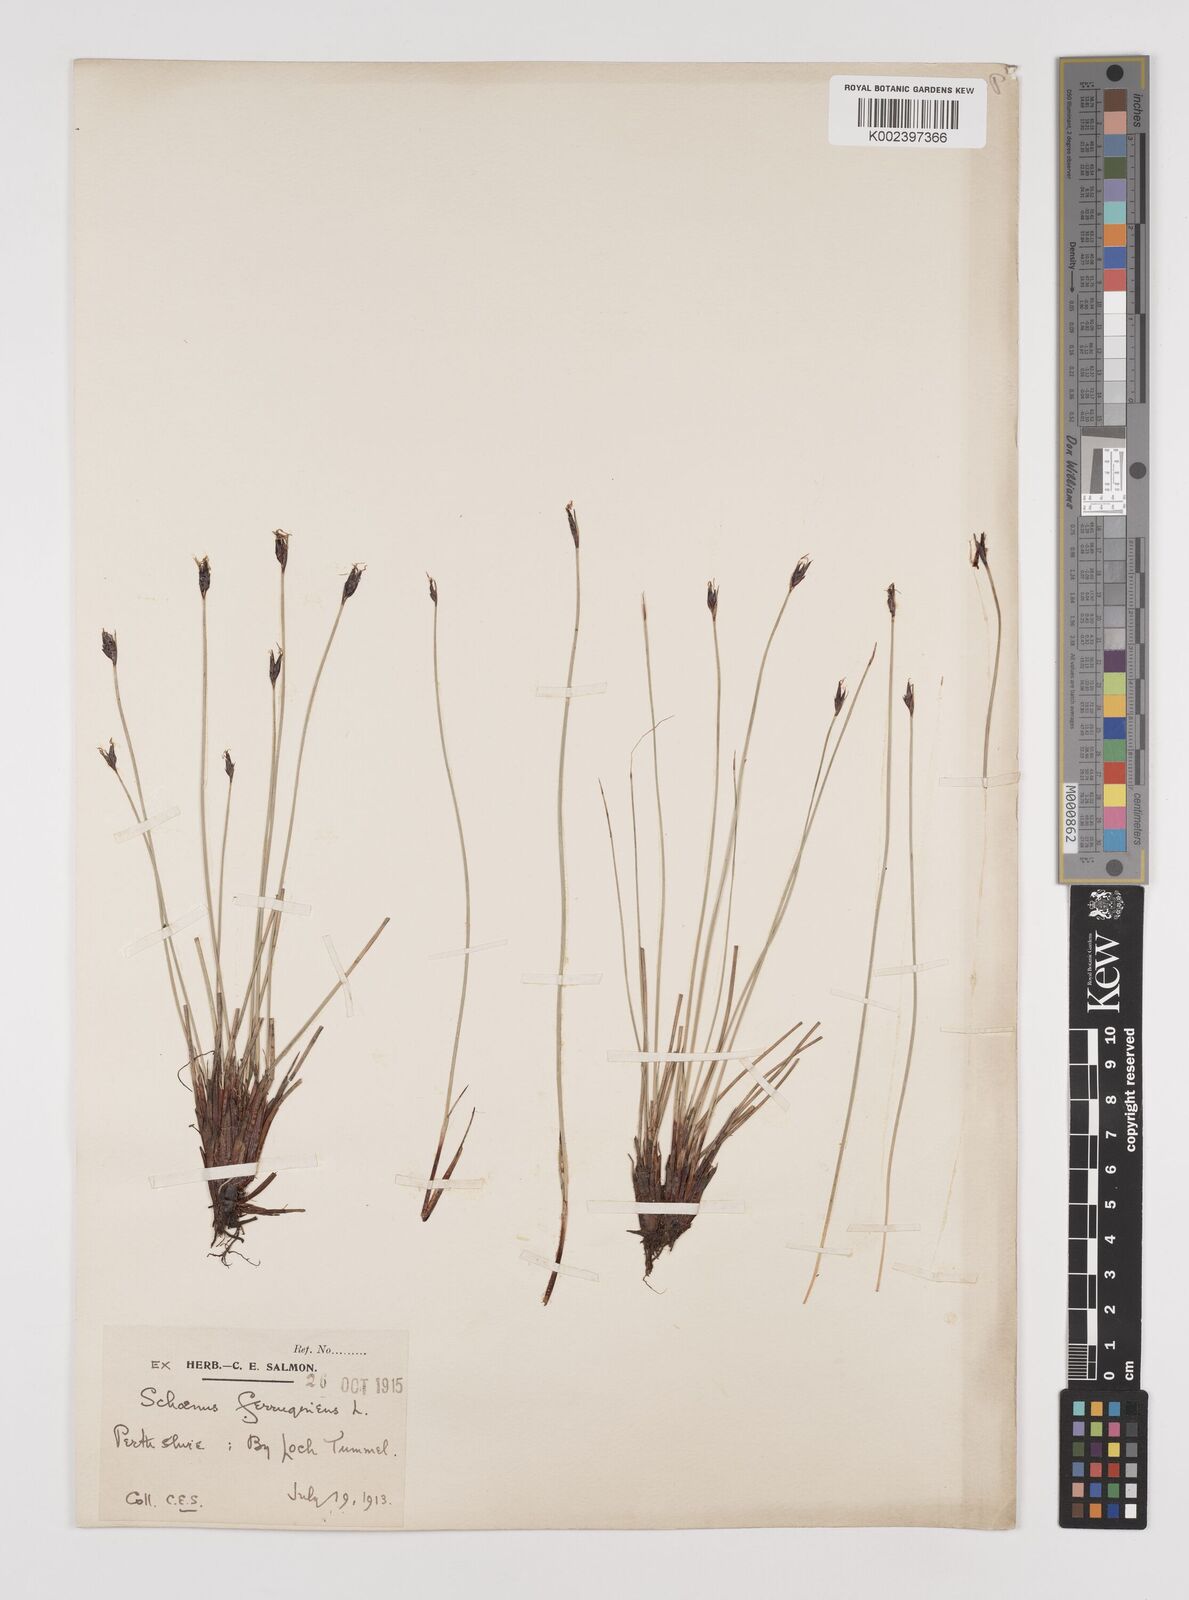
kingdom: Plantae
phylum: Tracheophyta
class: Liliopsida
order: Poales
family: Cyperaceae
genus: Schoenus
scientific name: Schoenus ferrugineus
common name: Brown bog-rush
